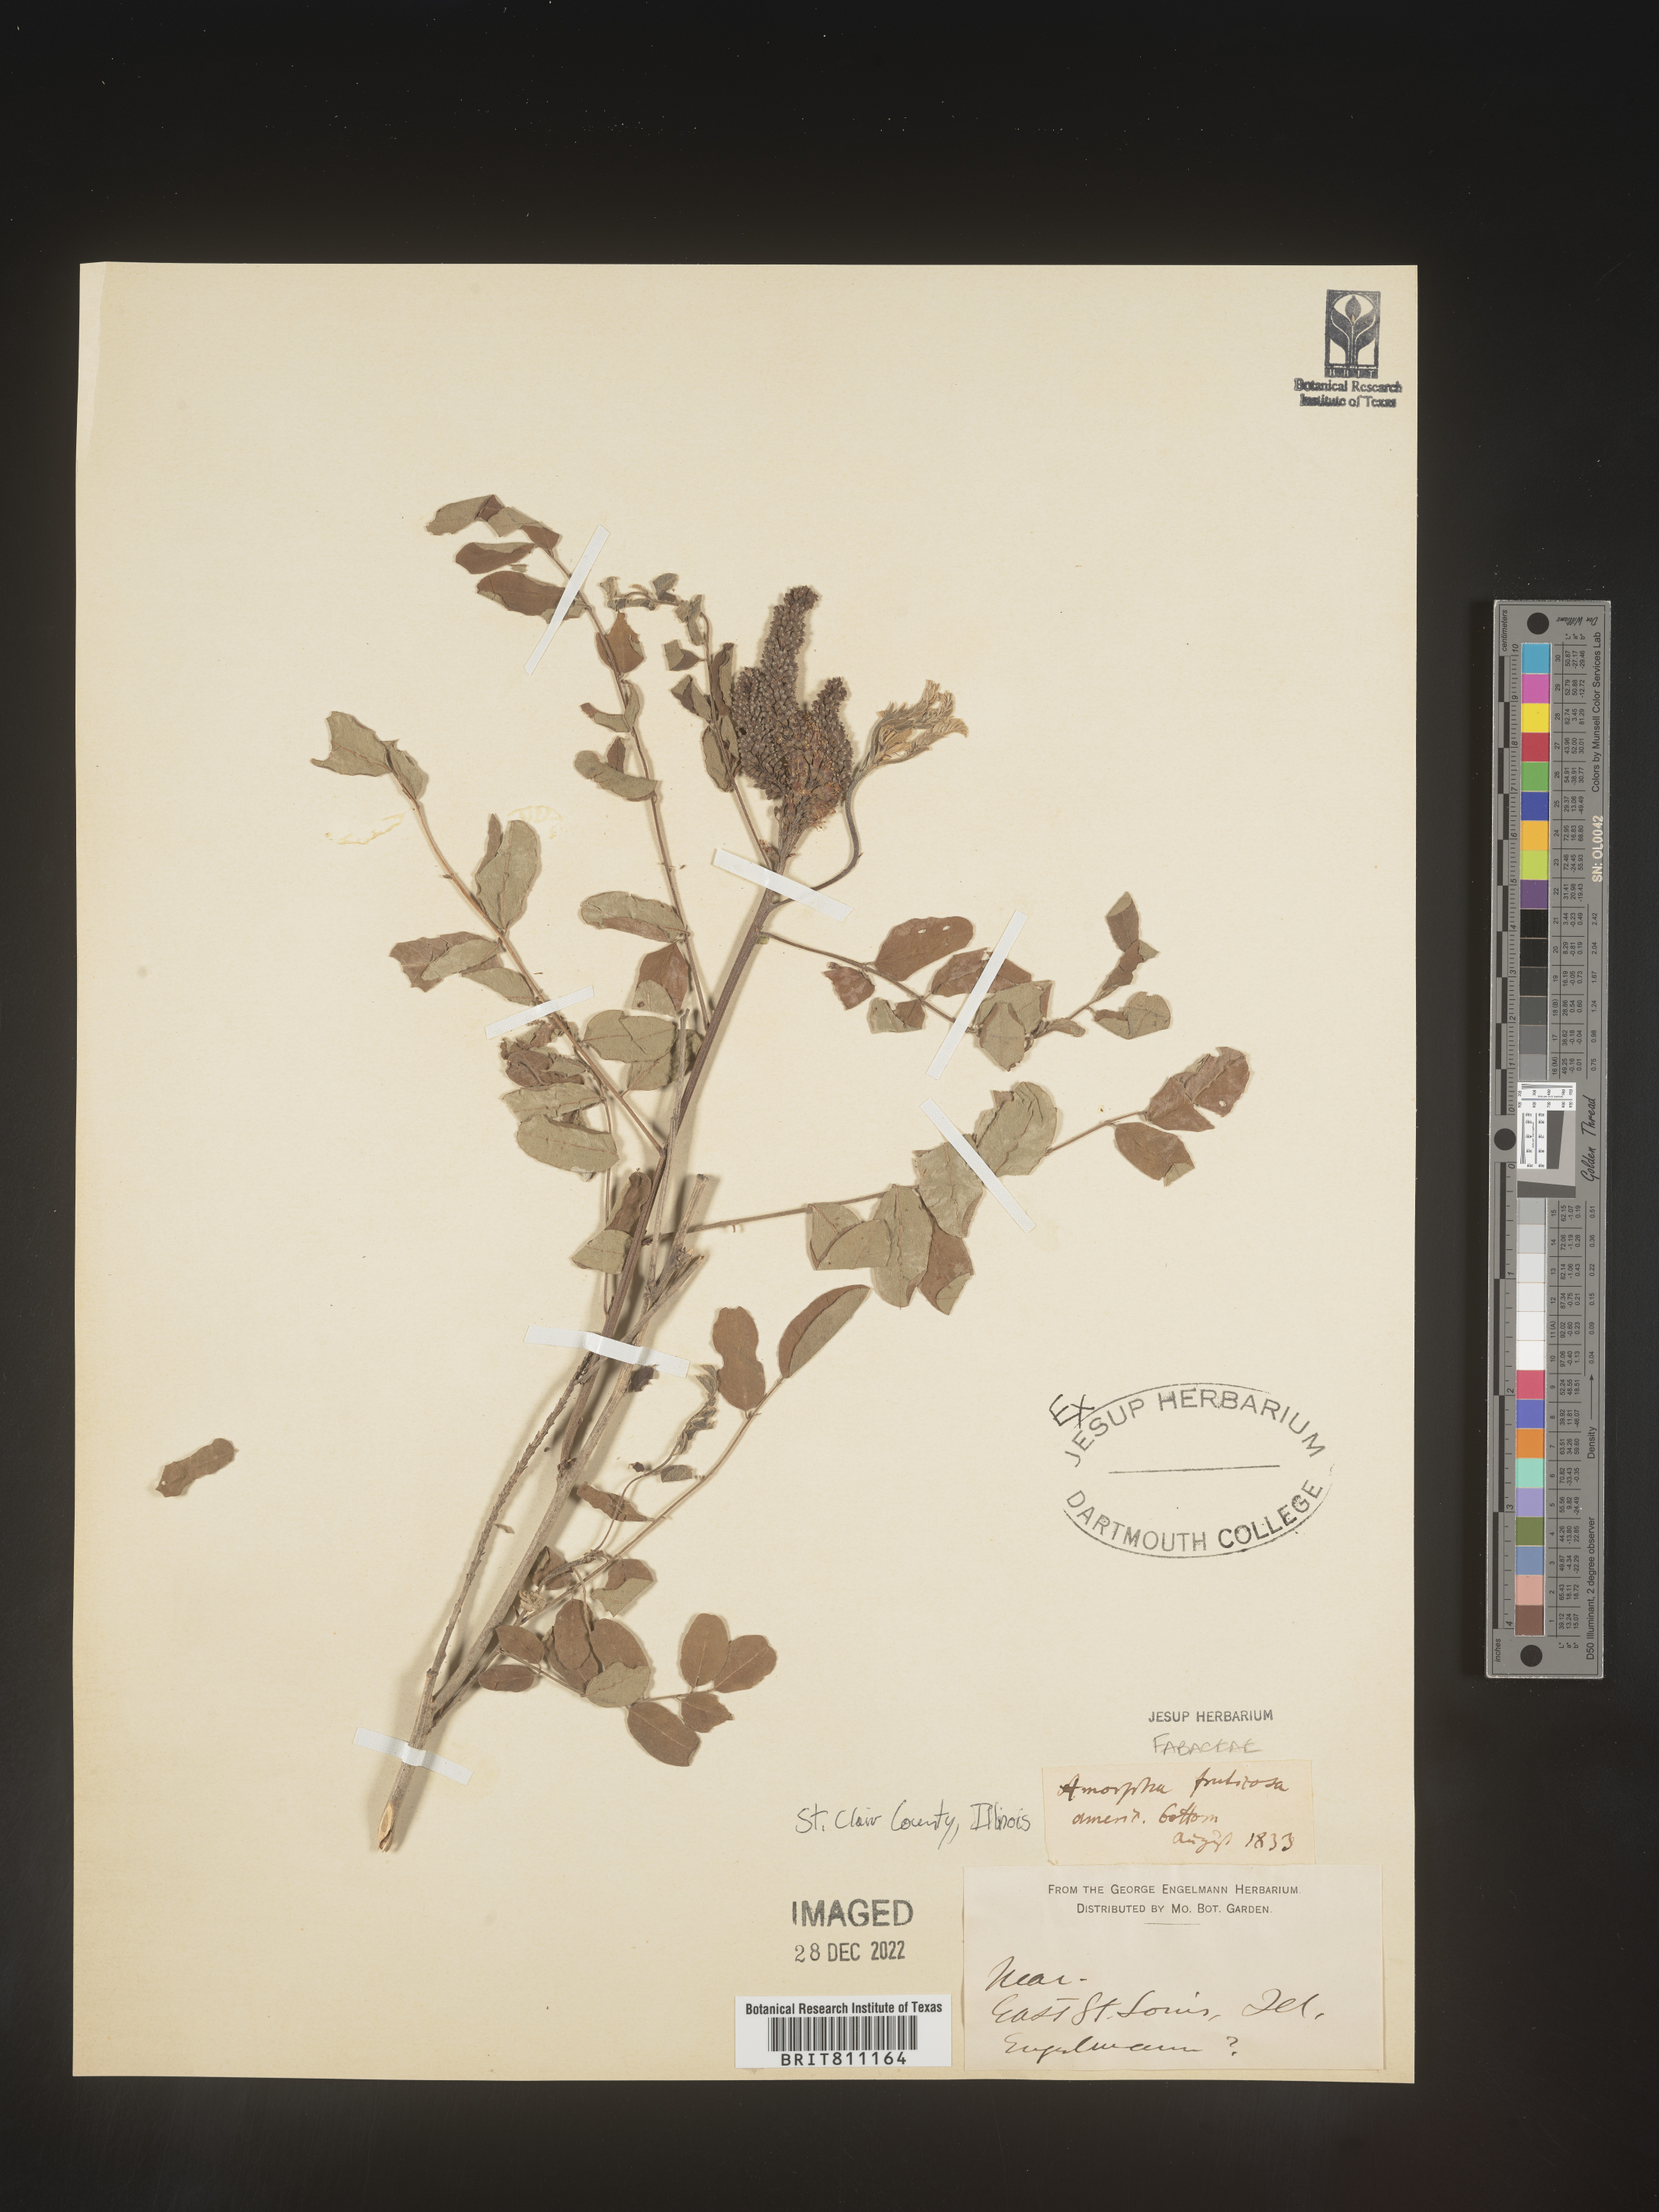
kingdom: Plantae
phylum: Tracheophyta
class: Magnoliopsida
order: Fabales
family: Fabaceae
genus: Amorpha
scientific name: Amorpha fruticosa
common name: False indigo
